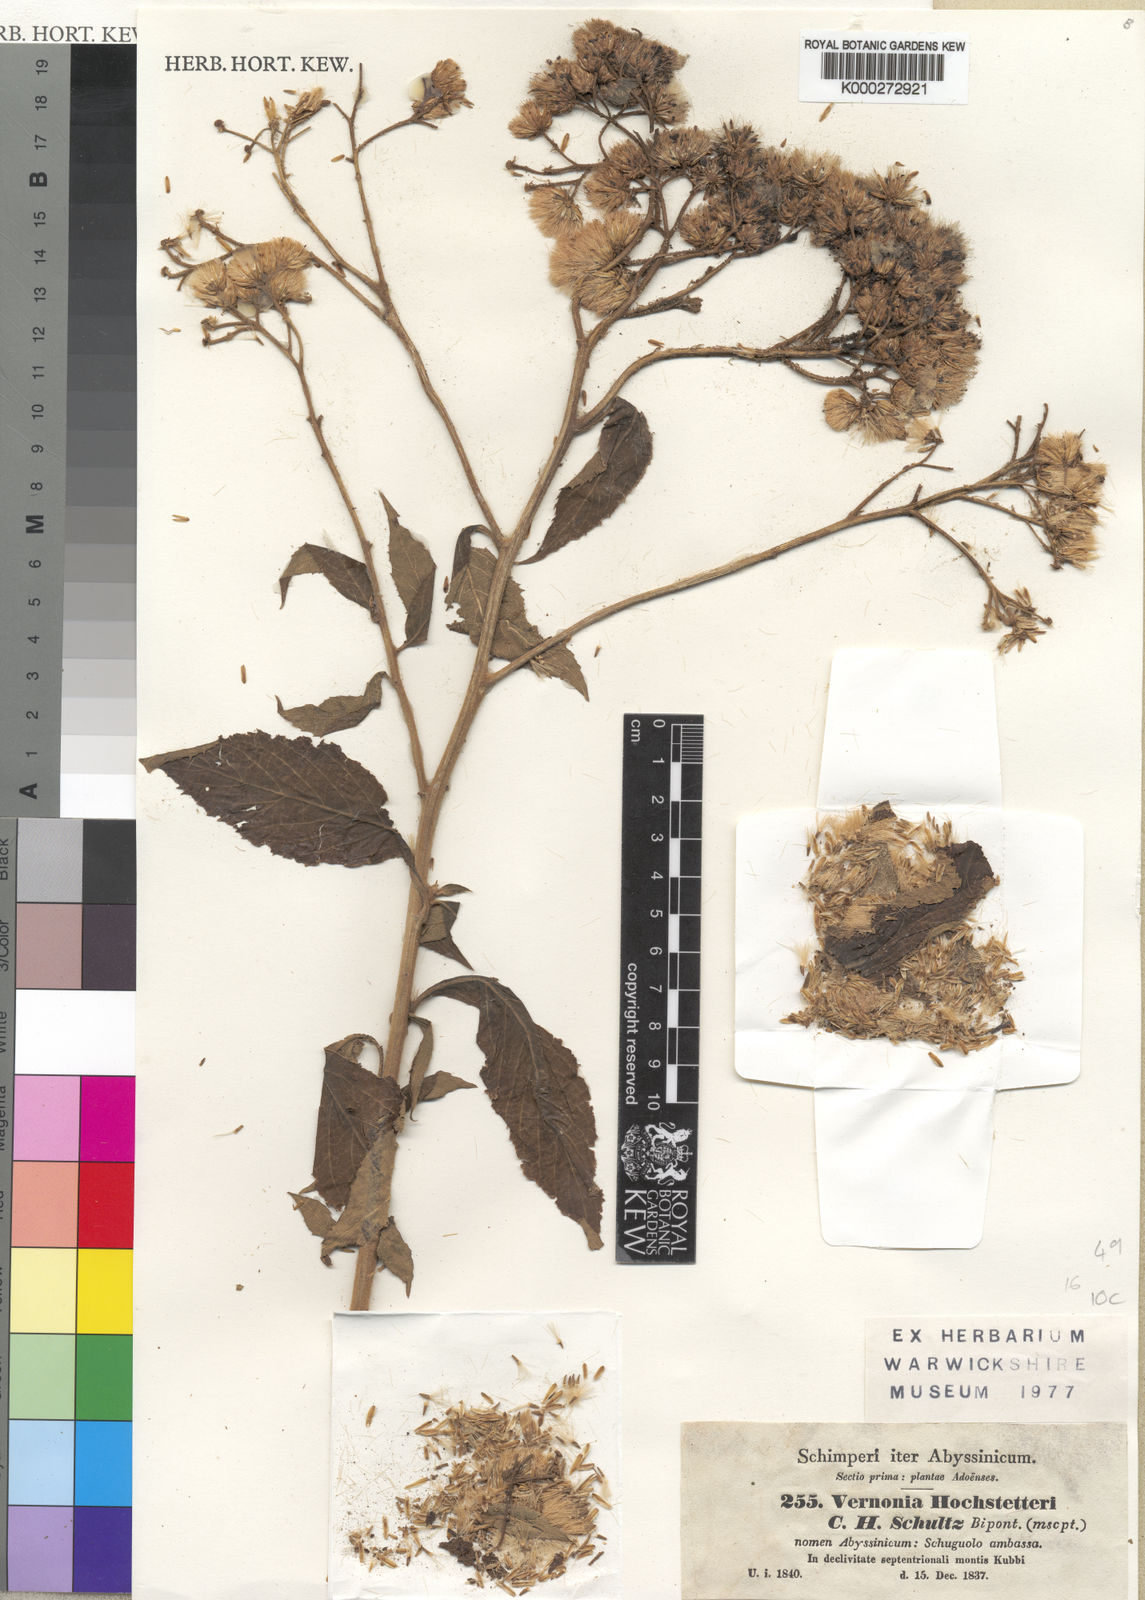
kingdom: Plantae
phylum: Tracheophyta
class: Magnoliopsida
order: Asterales
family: Asteraceae
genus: Vernonia
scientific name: Vernonia
